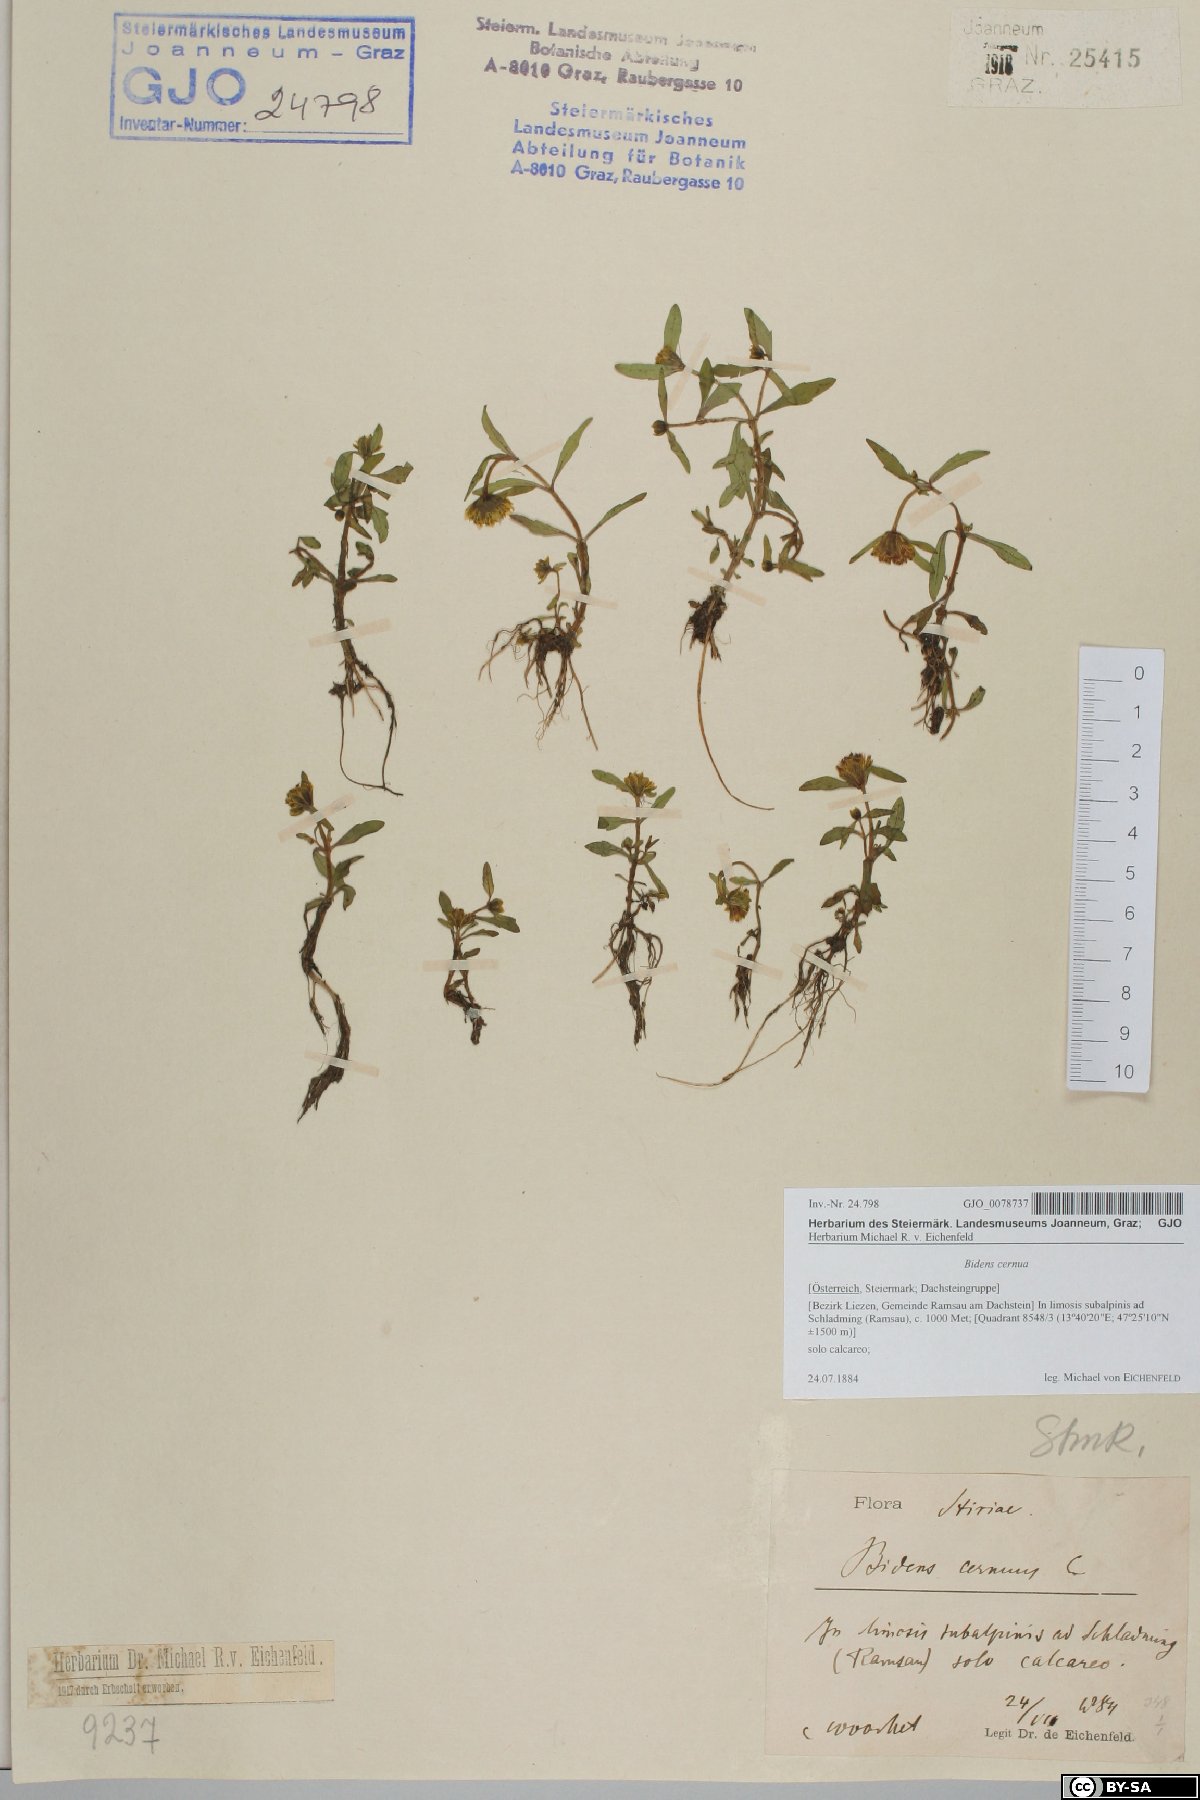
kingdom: Plantae
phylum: Tracheophyta
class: Magnoliopsida
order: Asterales
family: Asteraceae
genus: Bidens
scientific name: Bidens cernua
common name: Nodding bur-marigold
